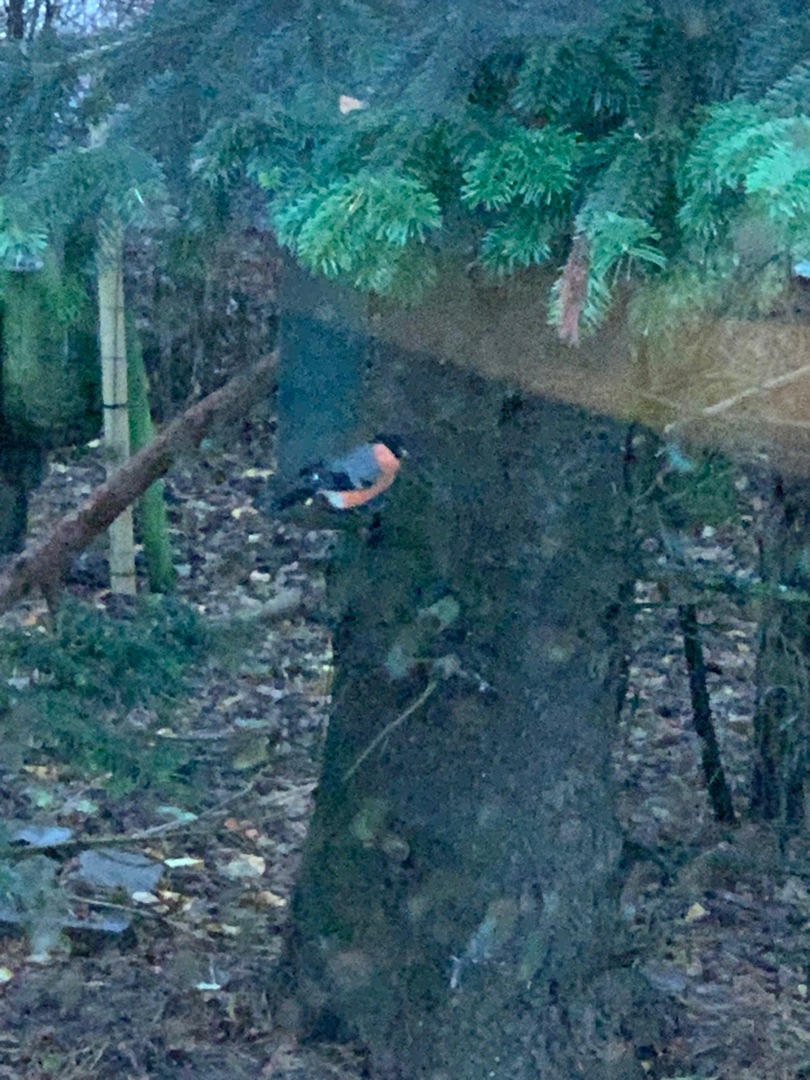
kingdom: Animalia
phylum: Chordata
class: Aves
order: Passeriformes
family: Fringillidae
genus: Pyrrhula
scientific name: Pyrrhula pyrrhula
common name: Dompap
